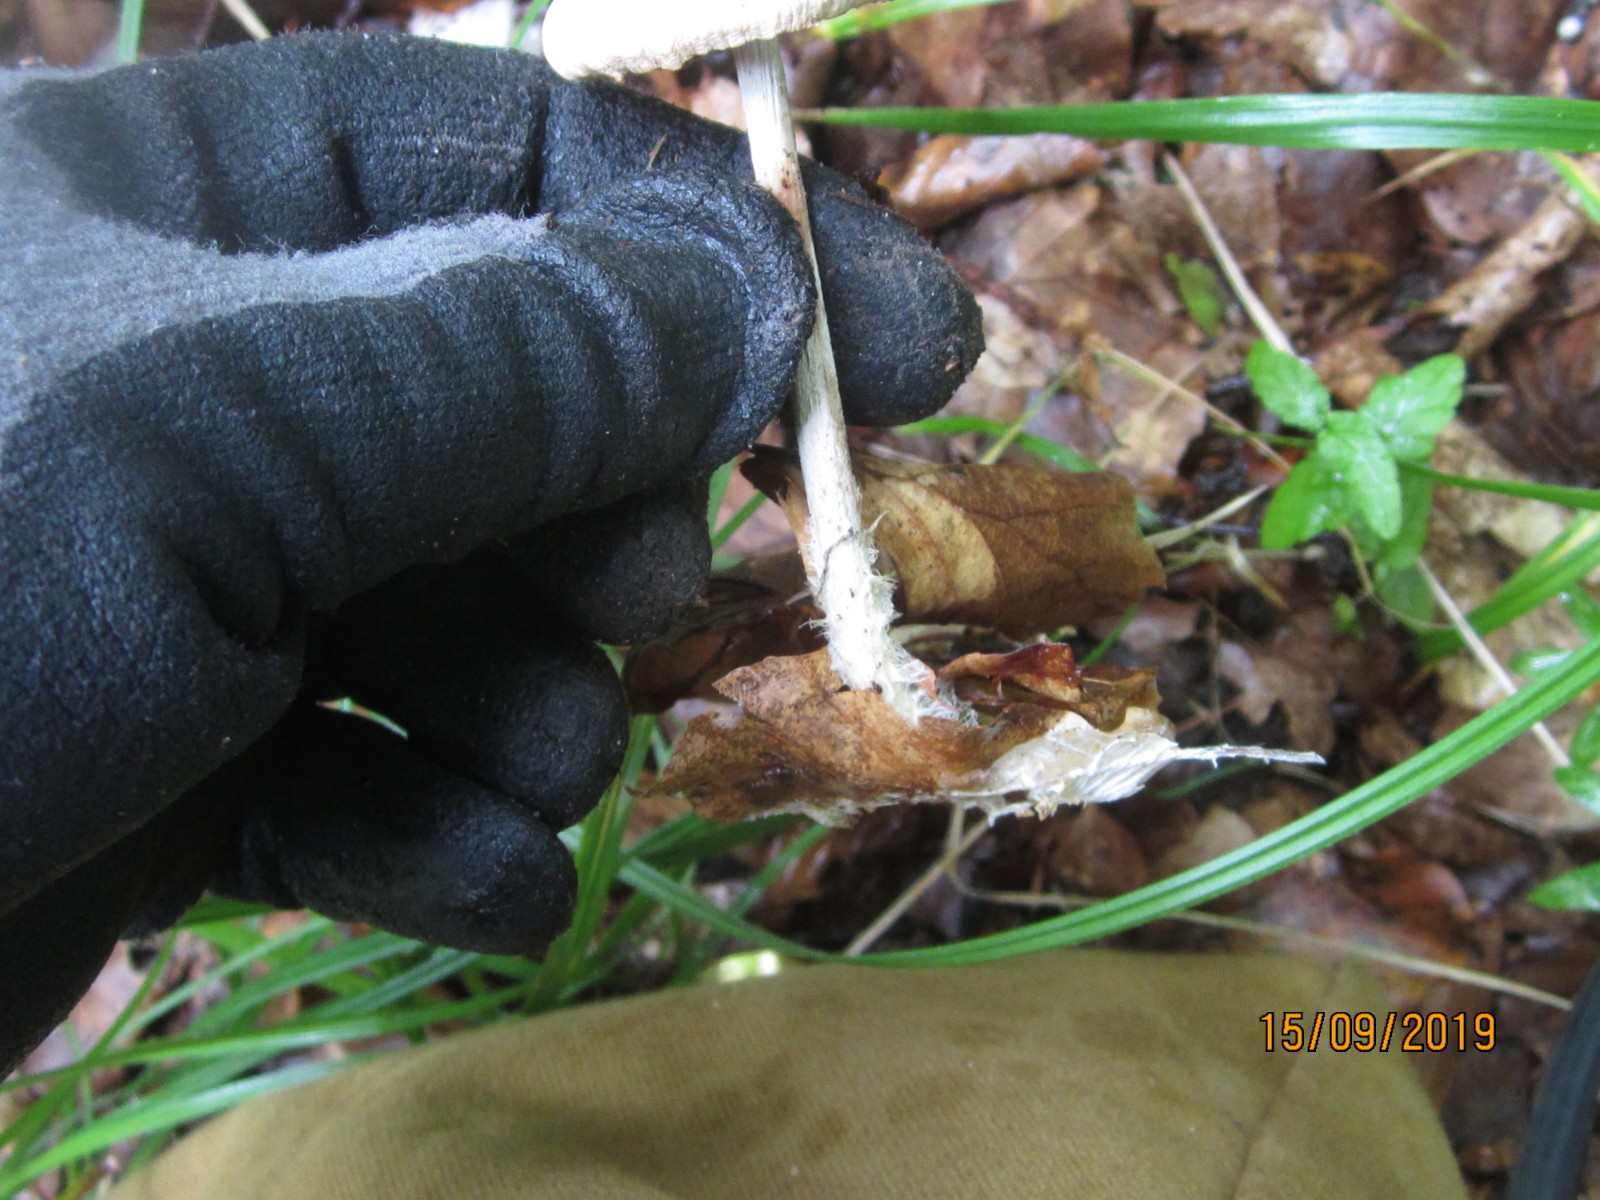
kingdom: Fungi
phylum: Basidiomycota
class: Agaricomycetes
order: Agaricales
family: Omphalotaceae
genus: Collybiopsis
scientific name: Collybiopsis peronata
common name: bestøvlet fladhat
